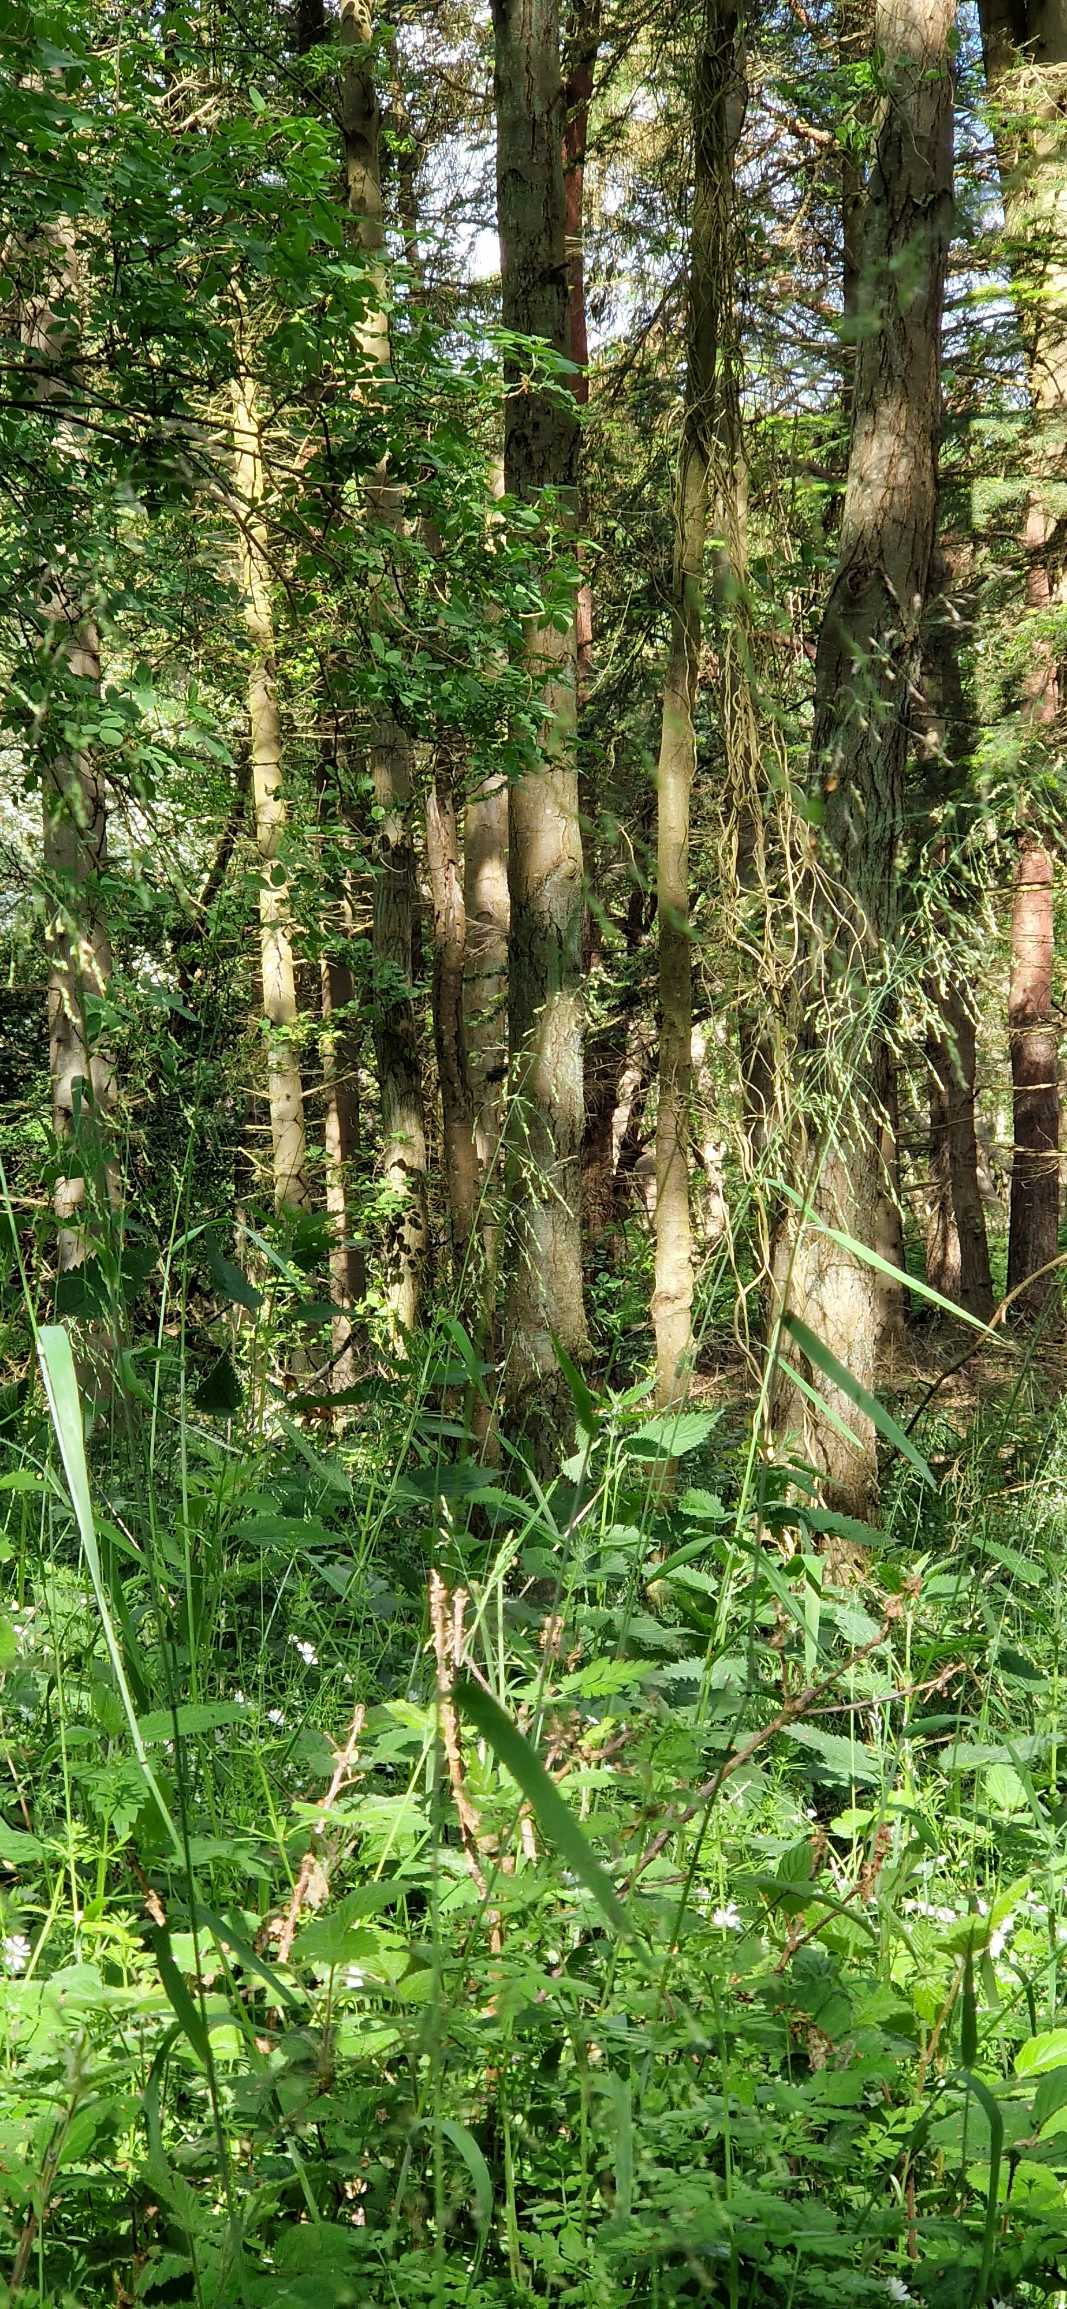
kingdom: Plantae
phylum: Tracheophyta
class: Liliopsida
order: Poales
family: Poaceae
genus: Milium
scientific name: Milium effusum
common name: Miliegræs
